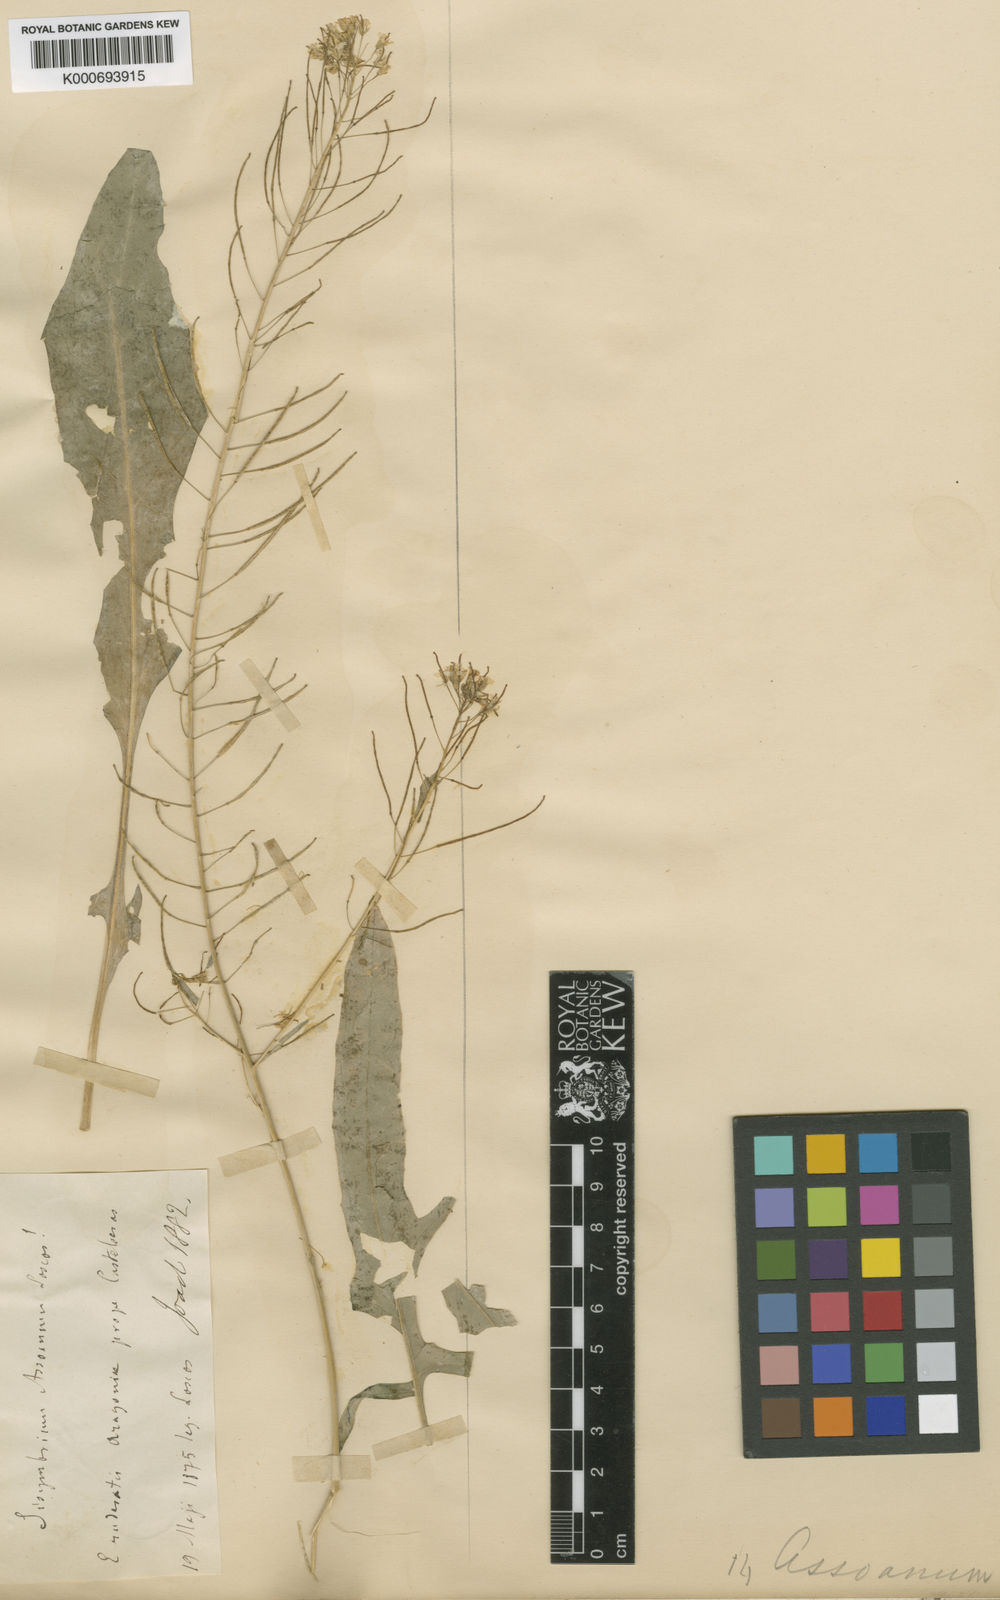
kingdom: Plantae
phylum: Tracheophyta
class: Magnoliopsida
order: Brassicales
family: Brassicaceae
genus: Sisymbrium
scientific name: Sisymbrium assoanum
